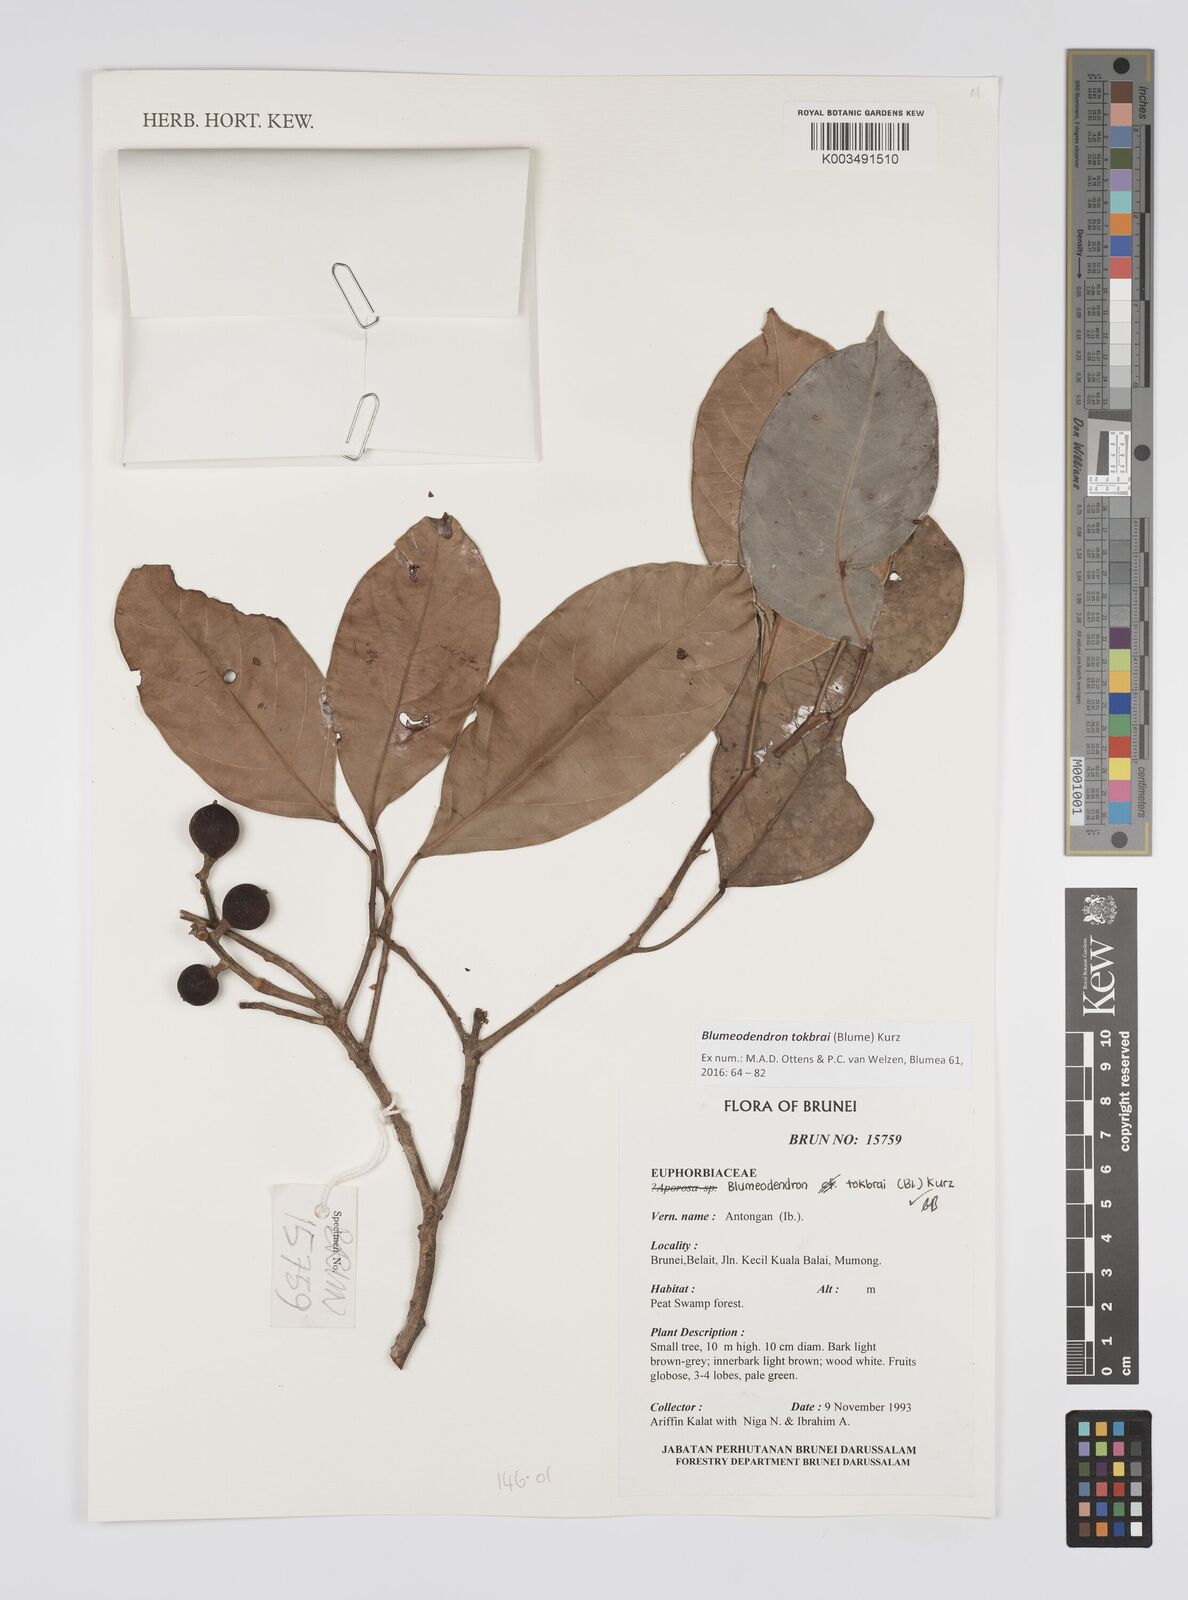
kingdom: Plantae
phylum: Tracheophyta
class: Magnoliopsida
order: Malpighiales
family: Euphorbiaceae
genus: Blumeodendron
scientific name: Blumeodendron tokbrai
